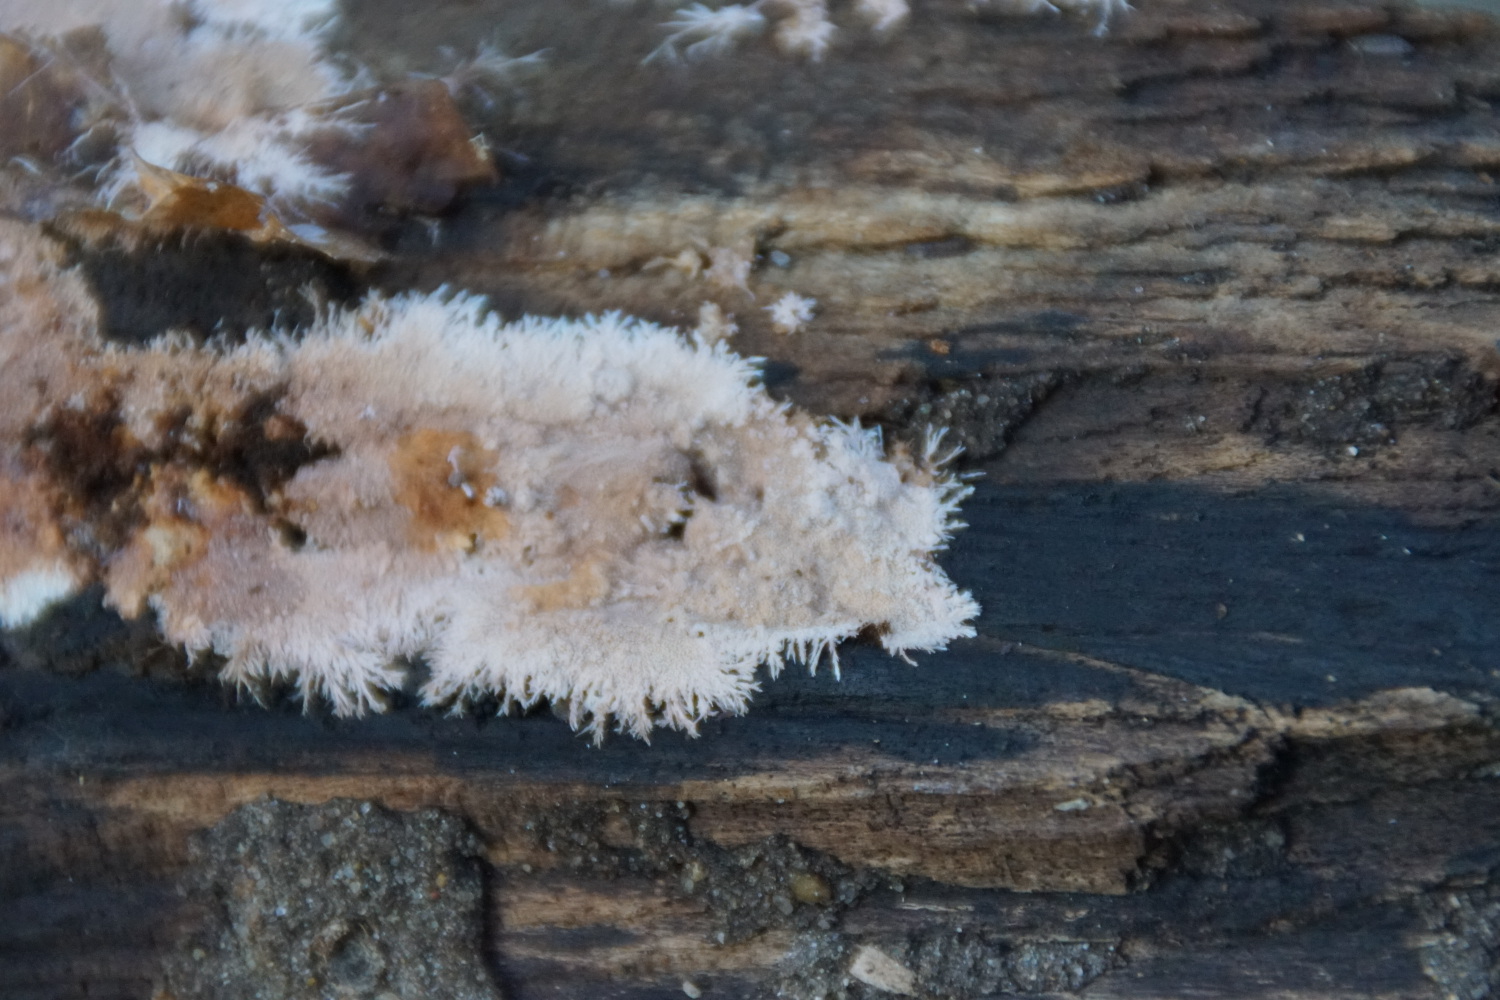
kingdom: Fungi
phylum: Basidiomycota
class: Agaricomycetes
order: Polyporales
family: Steccherinaceae
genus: Steccherinum
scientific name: Steccherinum fimbriatum
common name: trådet skønpig
